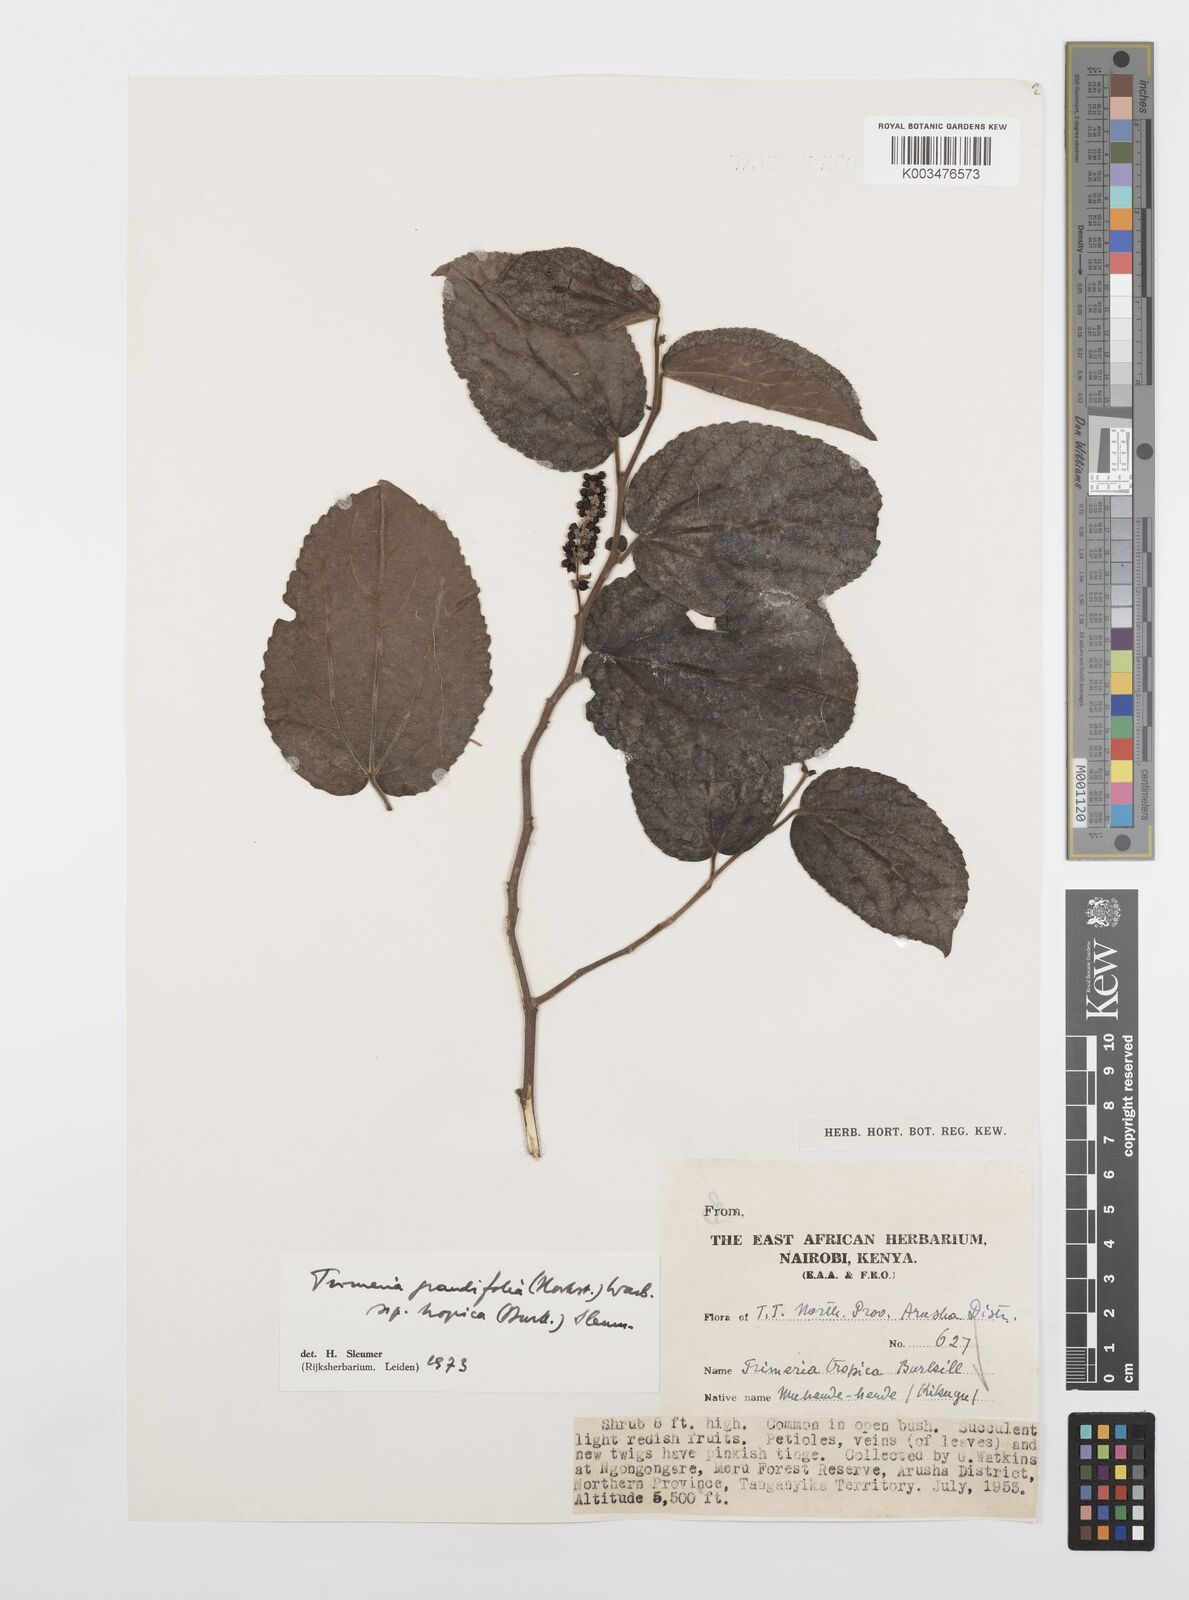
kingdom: Plantae
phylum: Tracheophyta
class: Magnoliopsida
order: Malpighiales
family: Salicaceae
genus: Trimeria
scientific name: Trimeria grandifolia
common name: Wild mulberry
